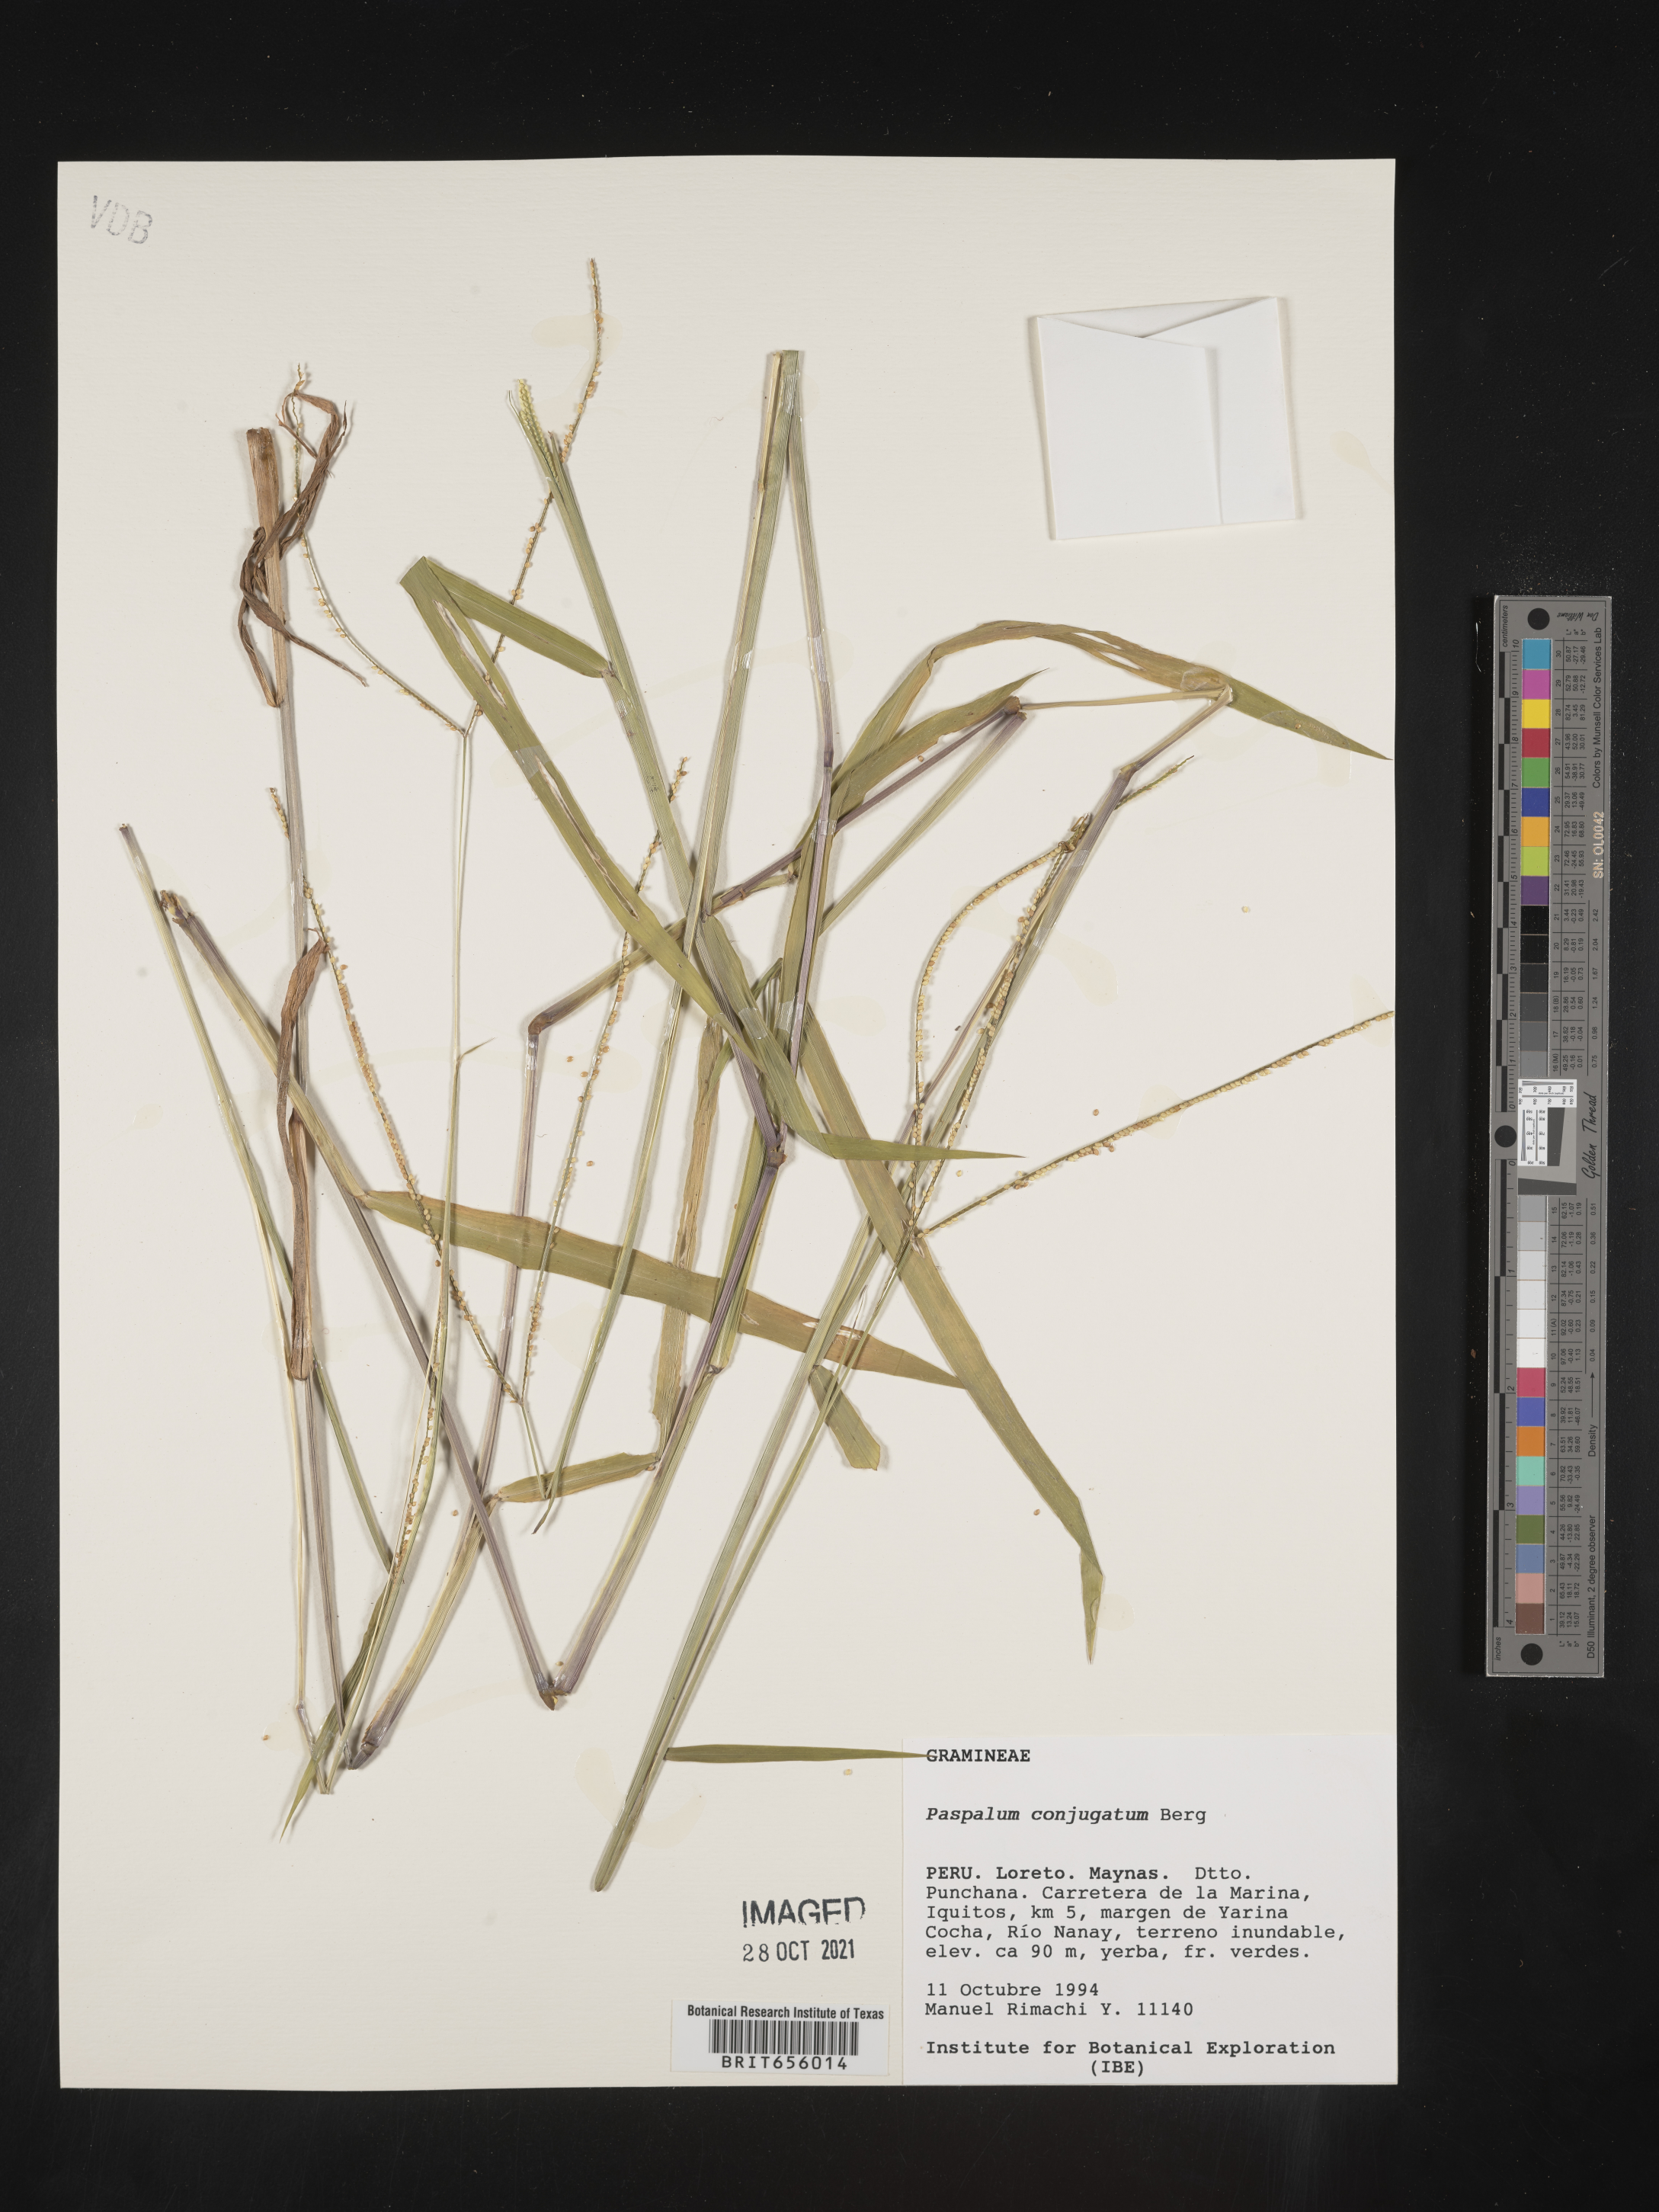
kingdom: Plantae
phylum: Tracheophyta
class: Liliopsida
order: Poales
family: Poaceae
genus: Paspalum
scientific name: Paspalum
